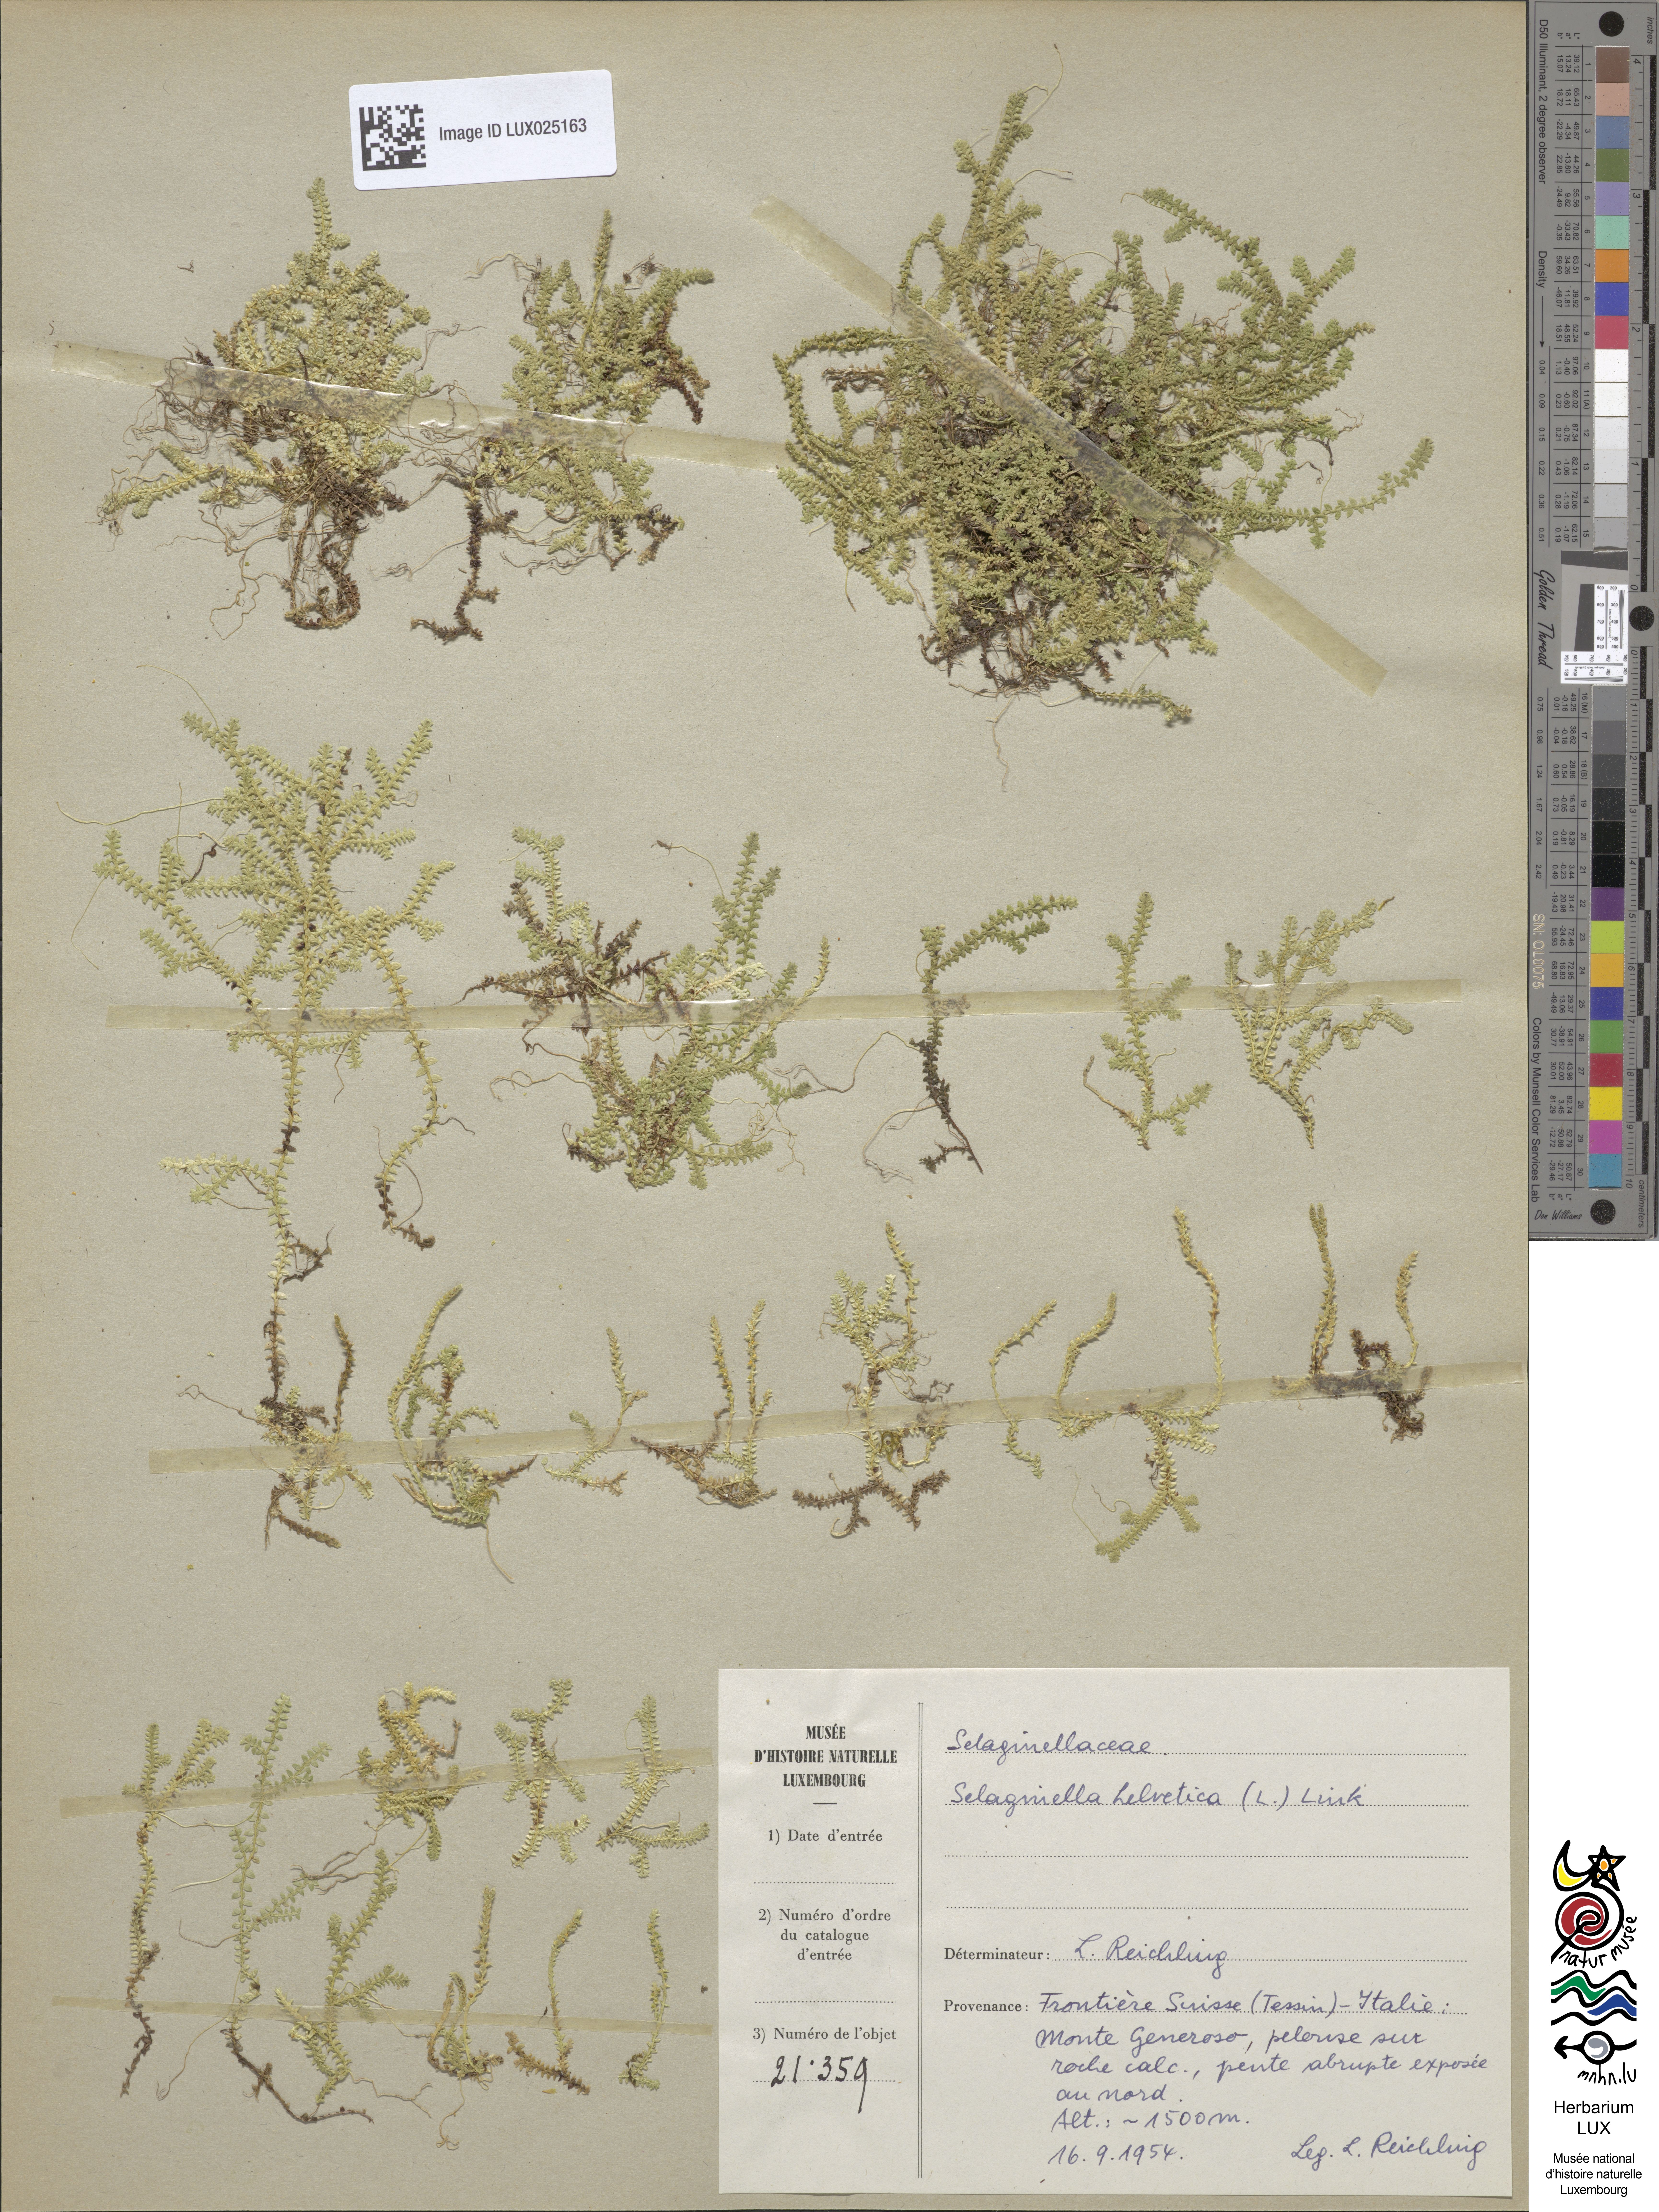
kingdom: Plantae
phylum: Tracheophyta
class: Lycopodiopsida
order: Selaginellales
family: Selaginellaceae
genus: Selaginella
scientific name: Selaginella helvetica
